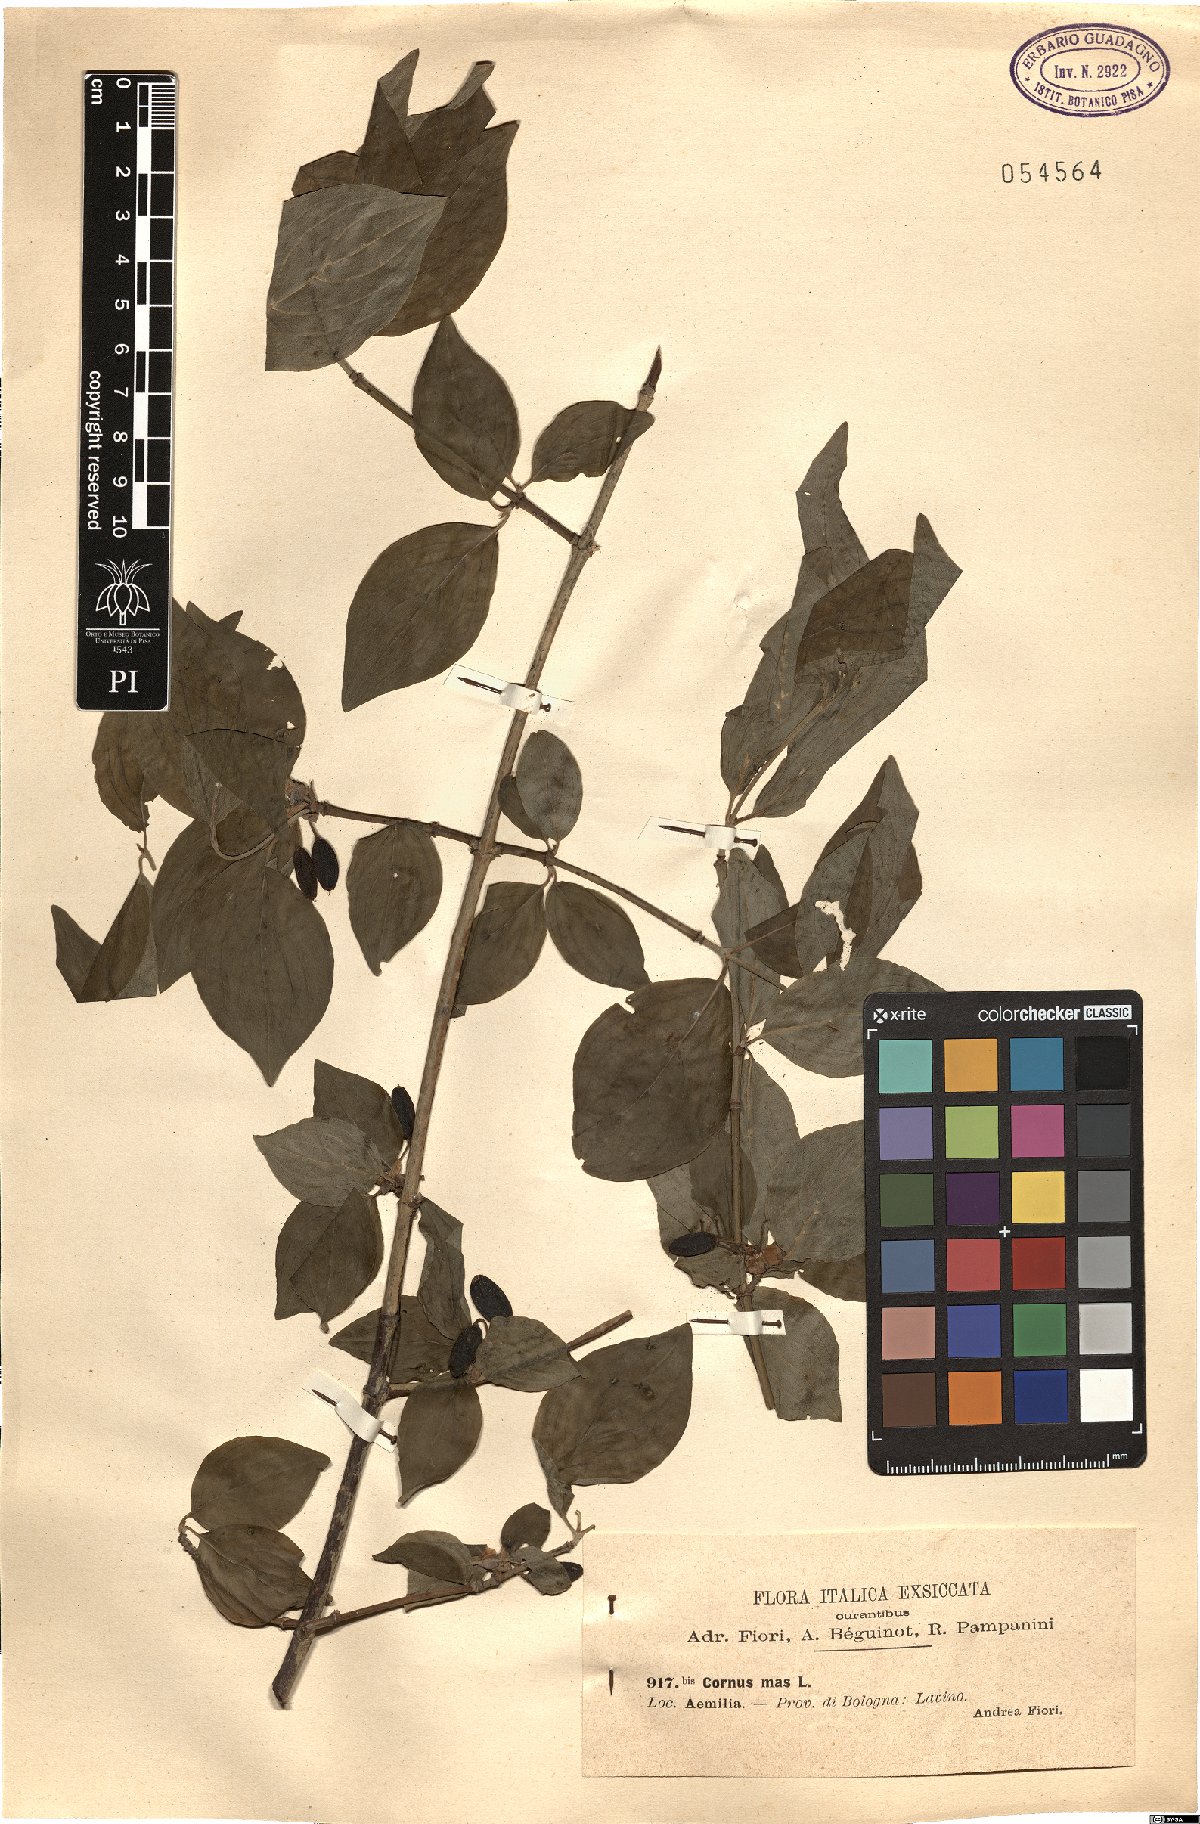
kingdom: Plantae
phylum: Tracheophyta
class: Magnoliopsida
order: Cornales
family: Cornaceae
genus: Cornus
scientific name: Cornus mas
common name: Cornelian-cherry
